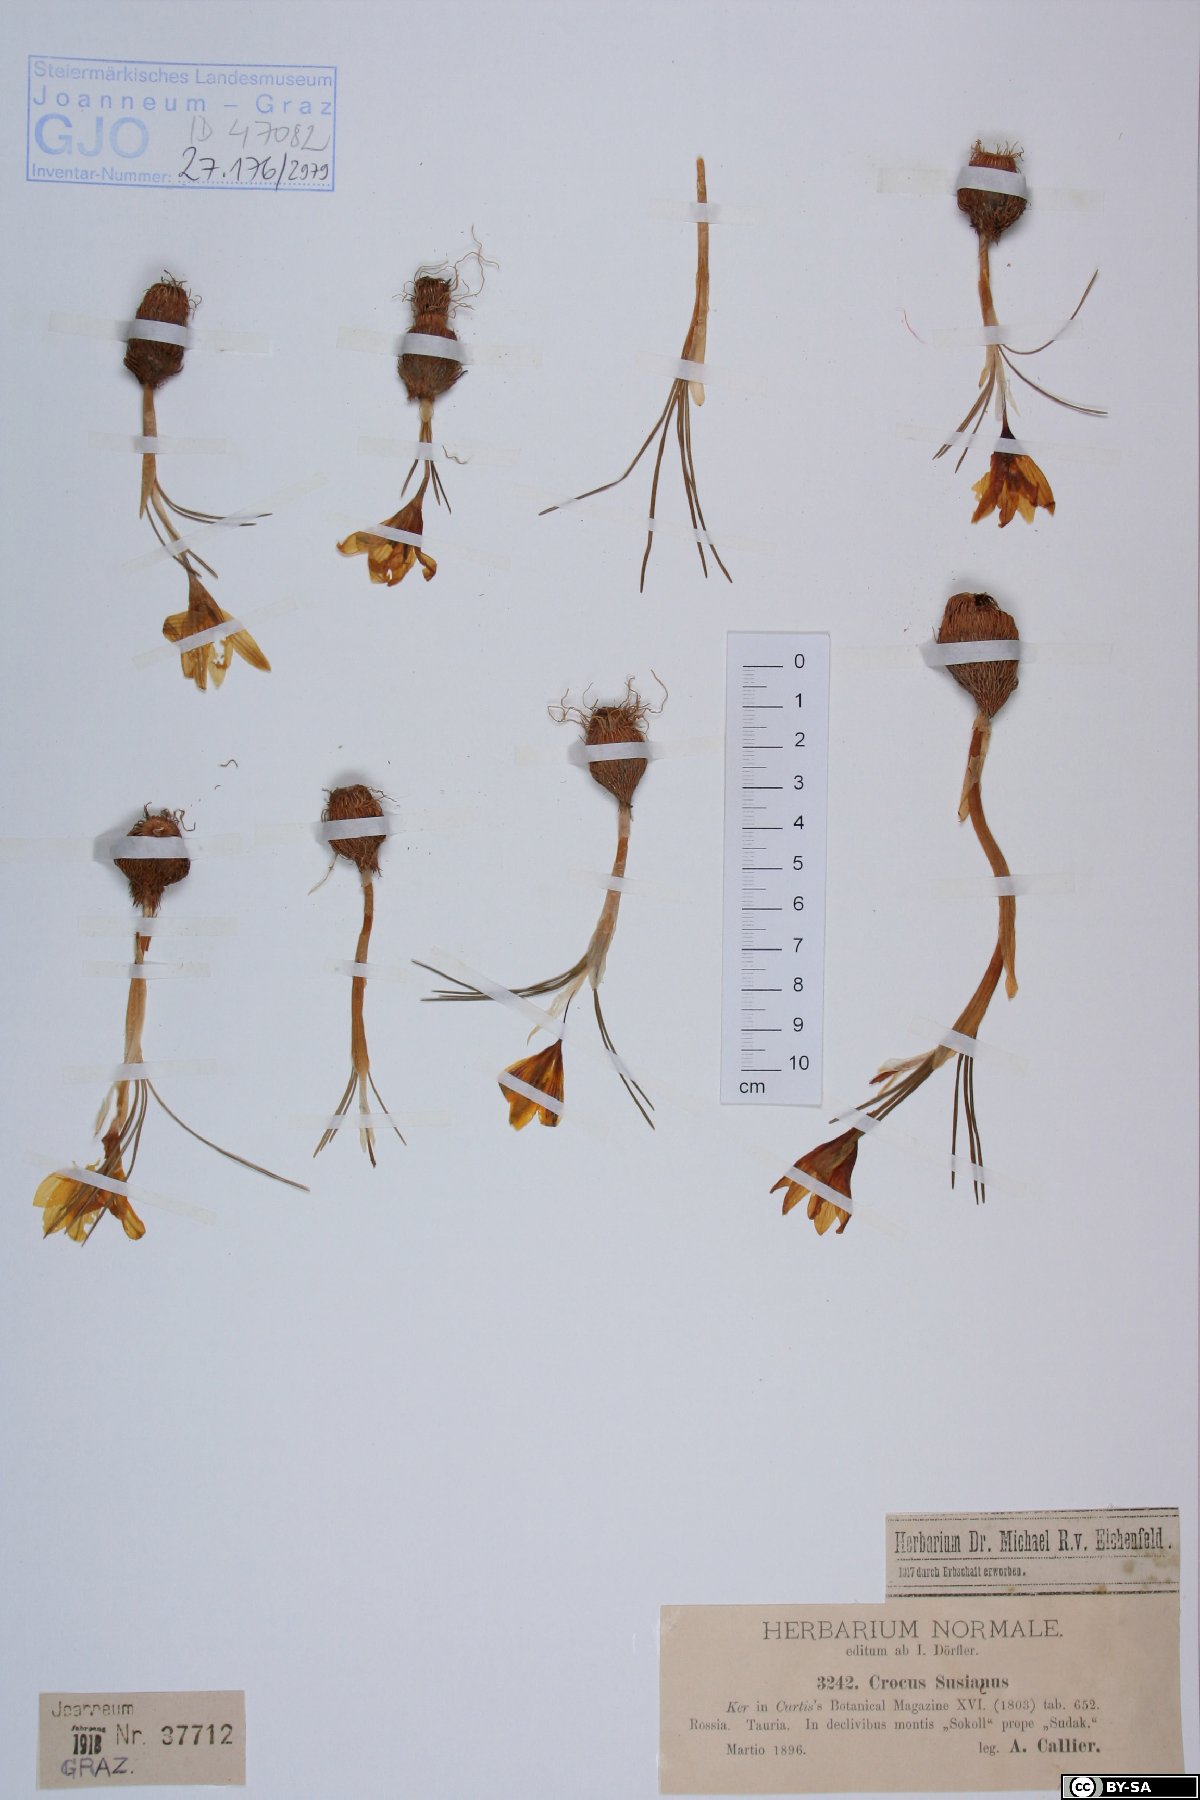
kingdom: Plantae
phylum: Tracheophyta
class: Liliopsida
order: Asparagales
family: Iridaceae
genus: Crocus
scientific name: Crocus angustifolius
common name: Cloth of gold
